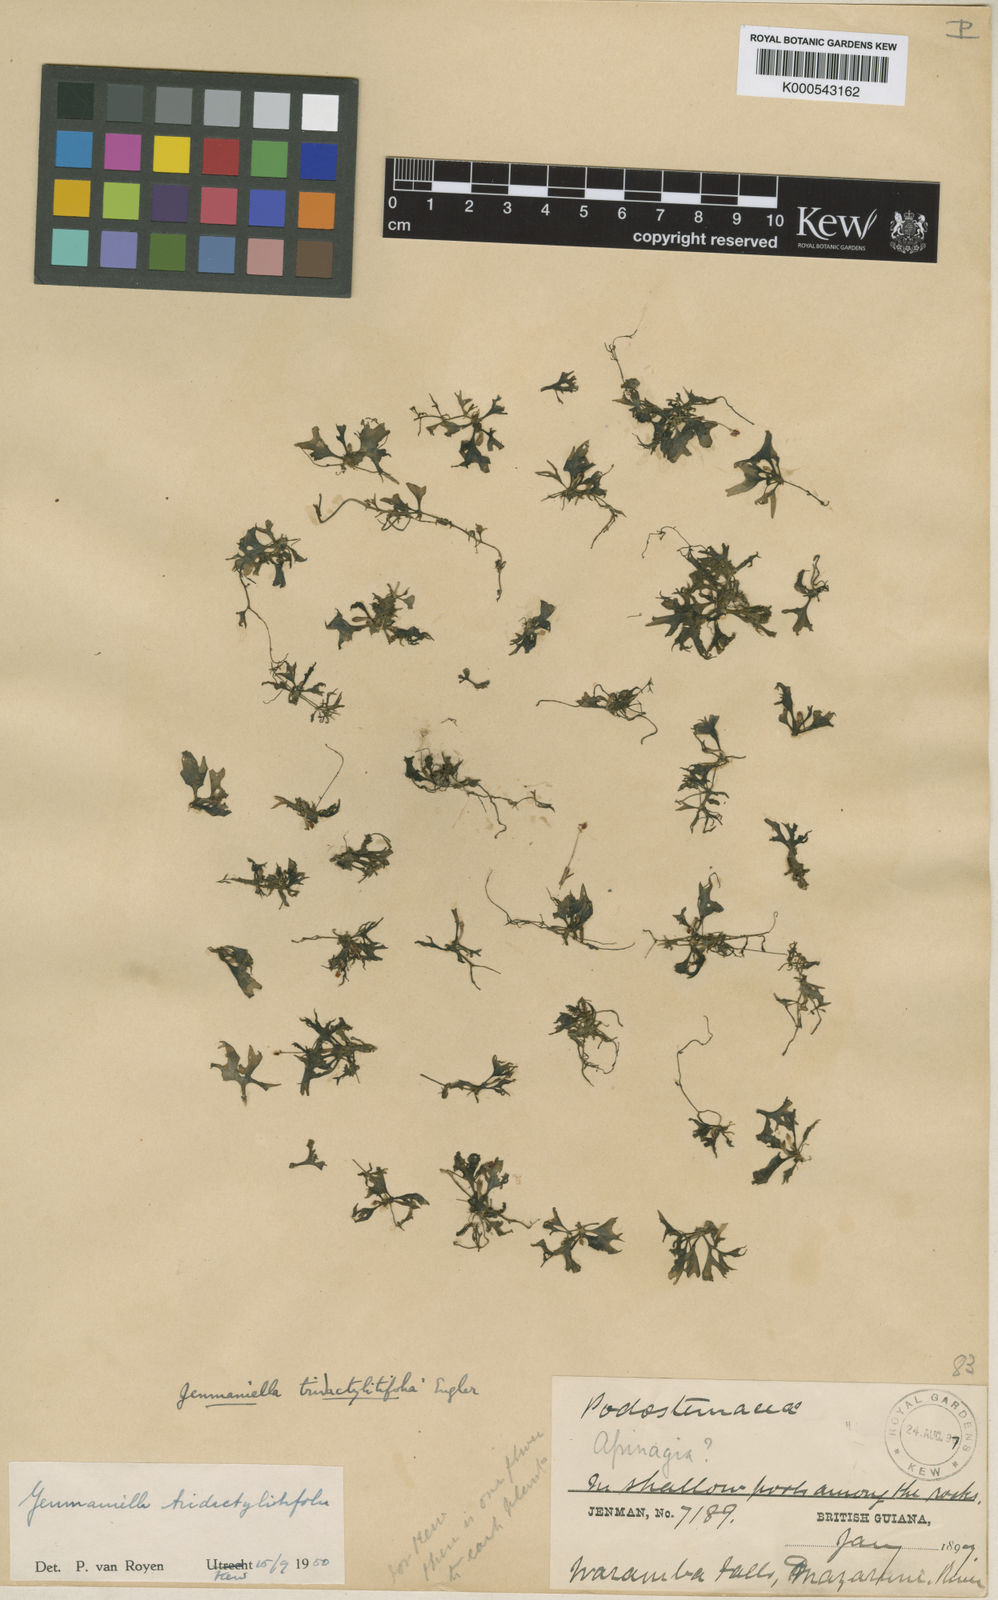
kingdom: Plantae
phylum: Tracheophyta
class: Magnoliopsida
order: Malpighiales
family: Podostemaceae
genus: Lophogyne
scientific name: Lophogyne tridactylitifolia
